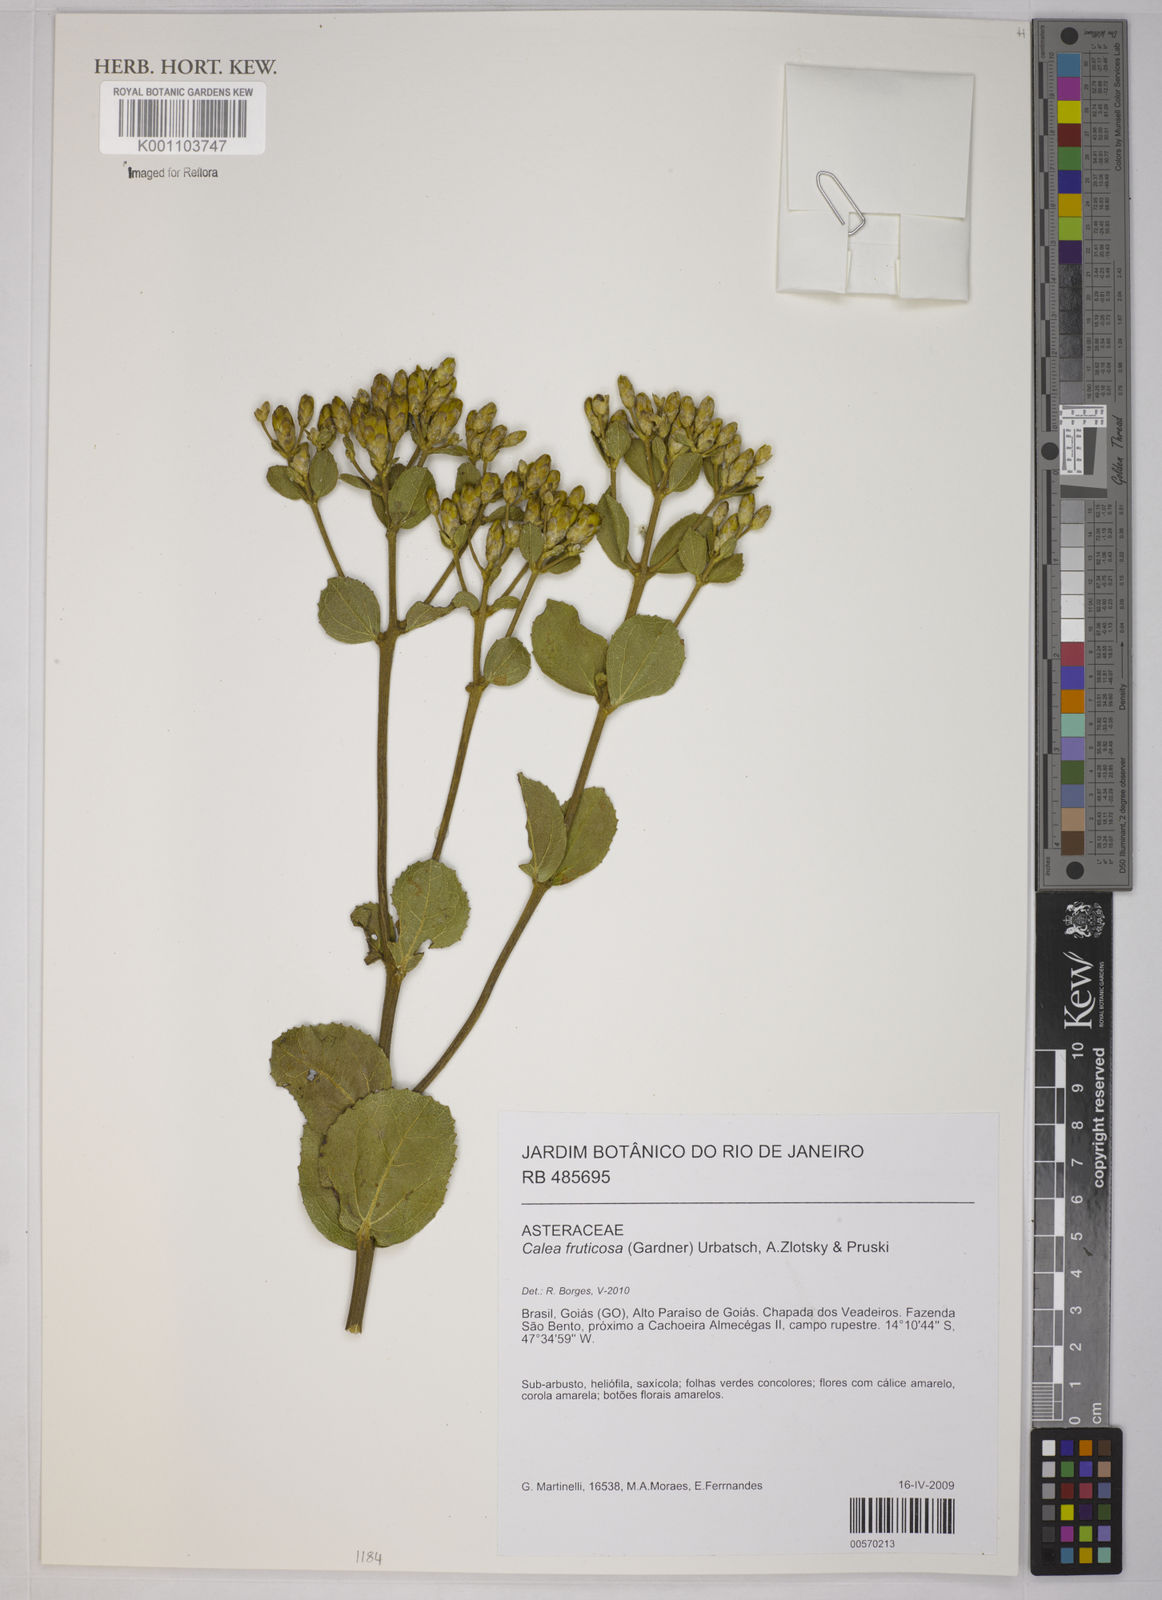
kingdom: Plantae
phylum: Tracheophyta
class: Magnoliopsida
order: Asterales
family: Asteraceae
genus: Calea
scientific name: Calea fruticosa
